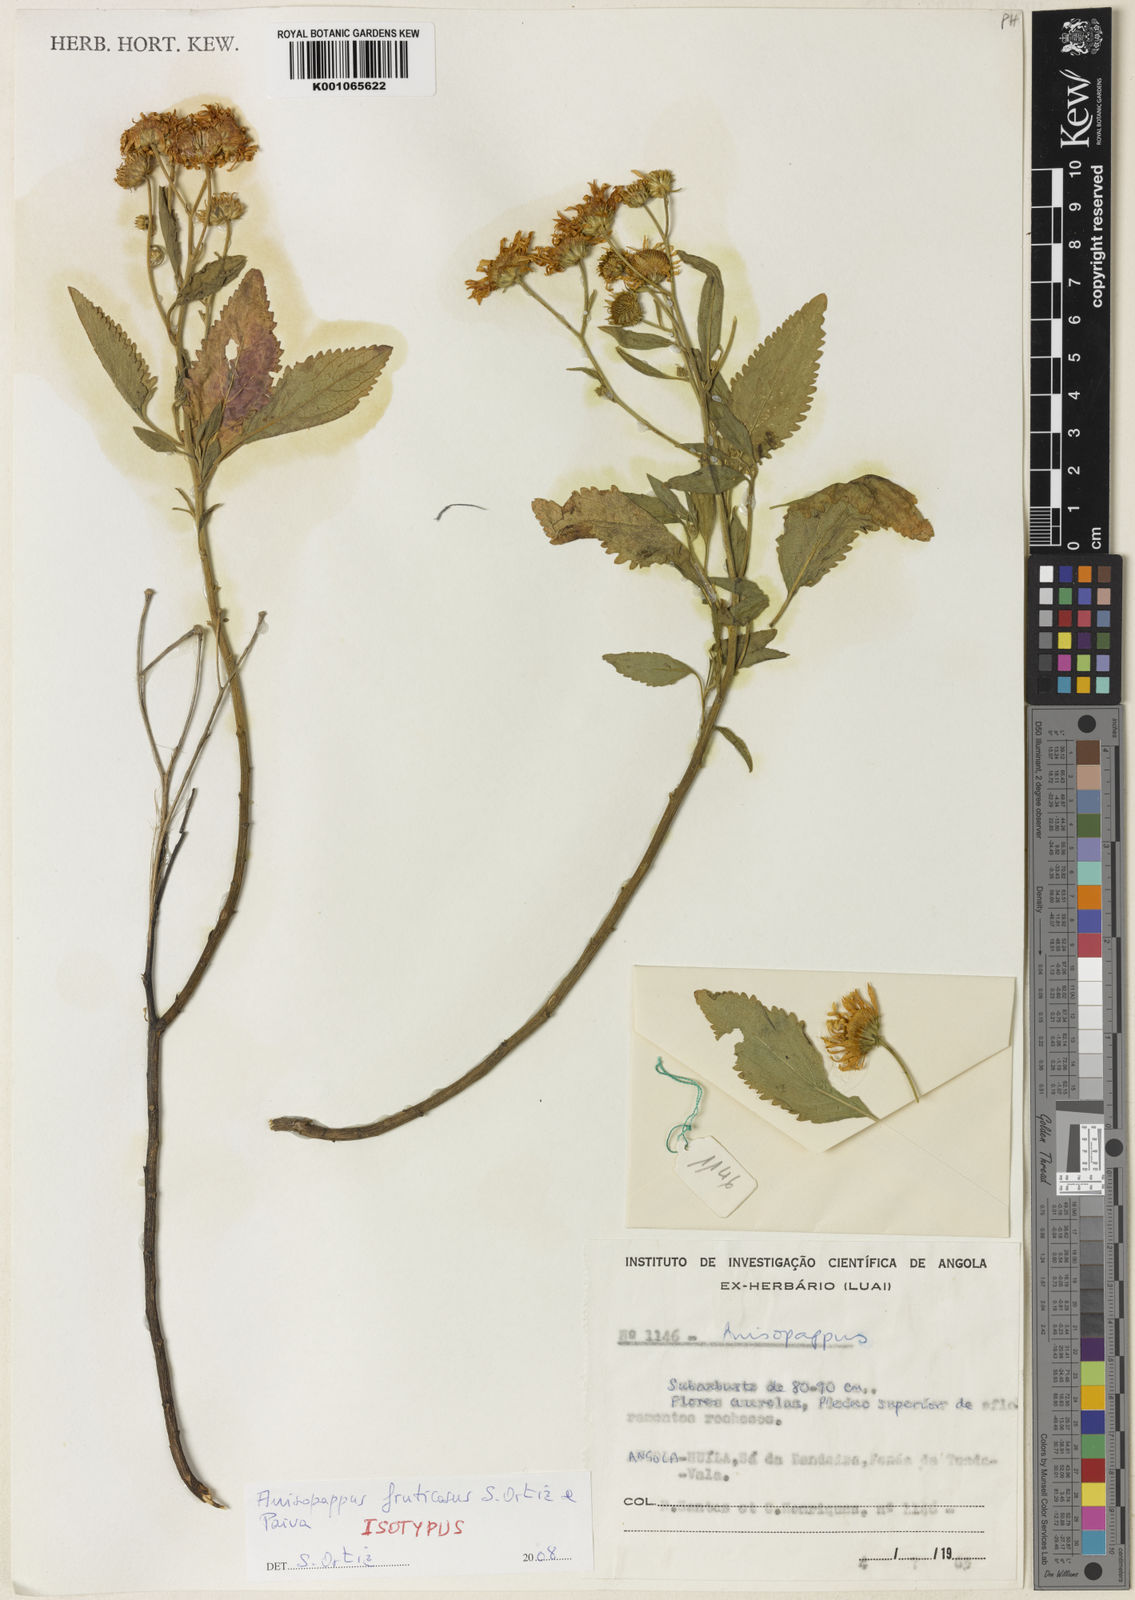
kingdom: Plantae
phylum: Tracheophyta
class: Magnoliopsida
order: Asterales
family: Asteraceae
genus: Anisopappus
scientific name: Anisopappus fruticosus
